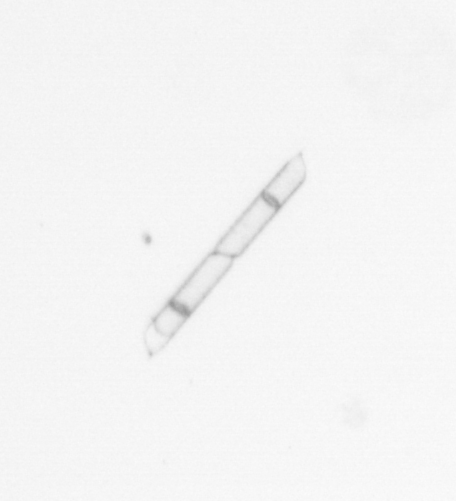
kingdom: Chromista
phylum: Ochrophyta
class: Bacillariophyceae
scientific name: Bacillariophyceae
